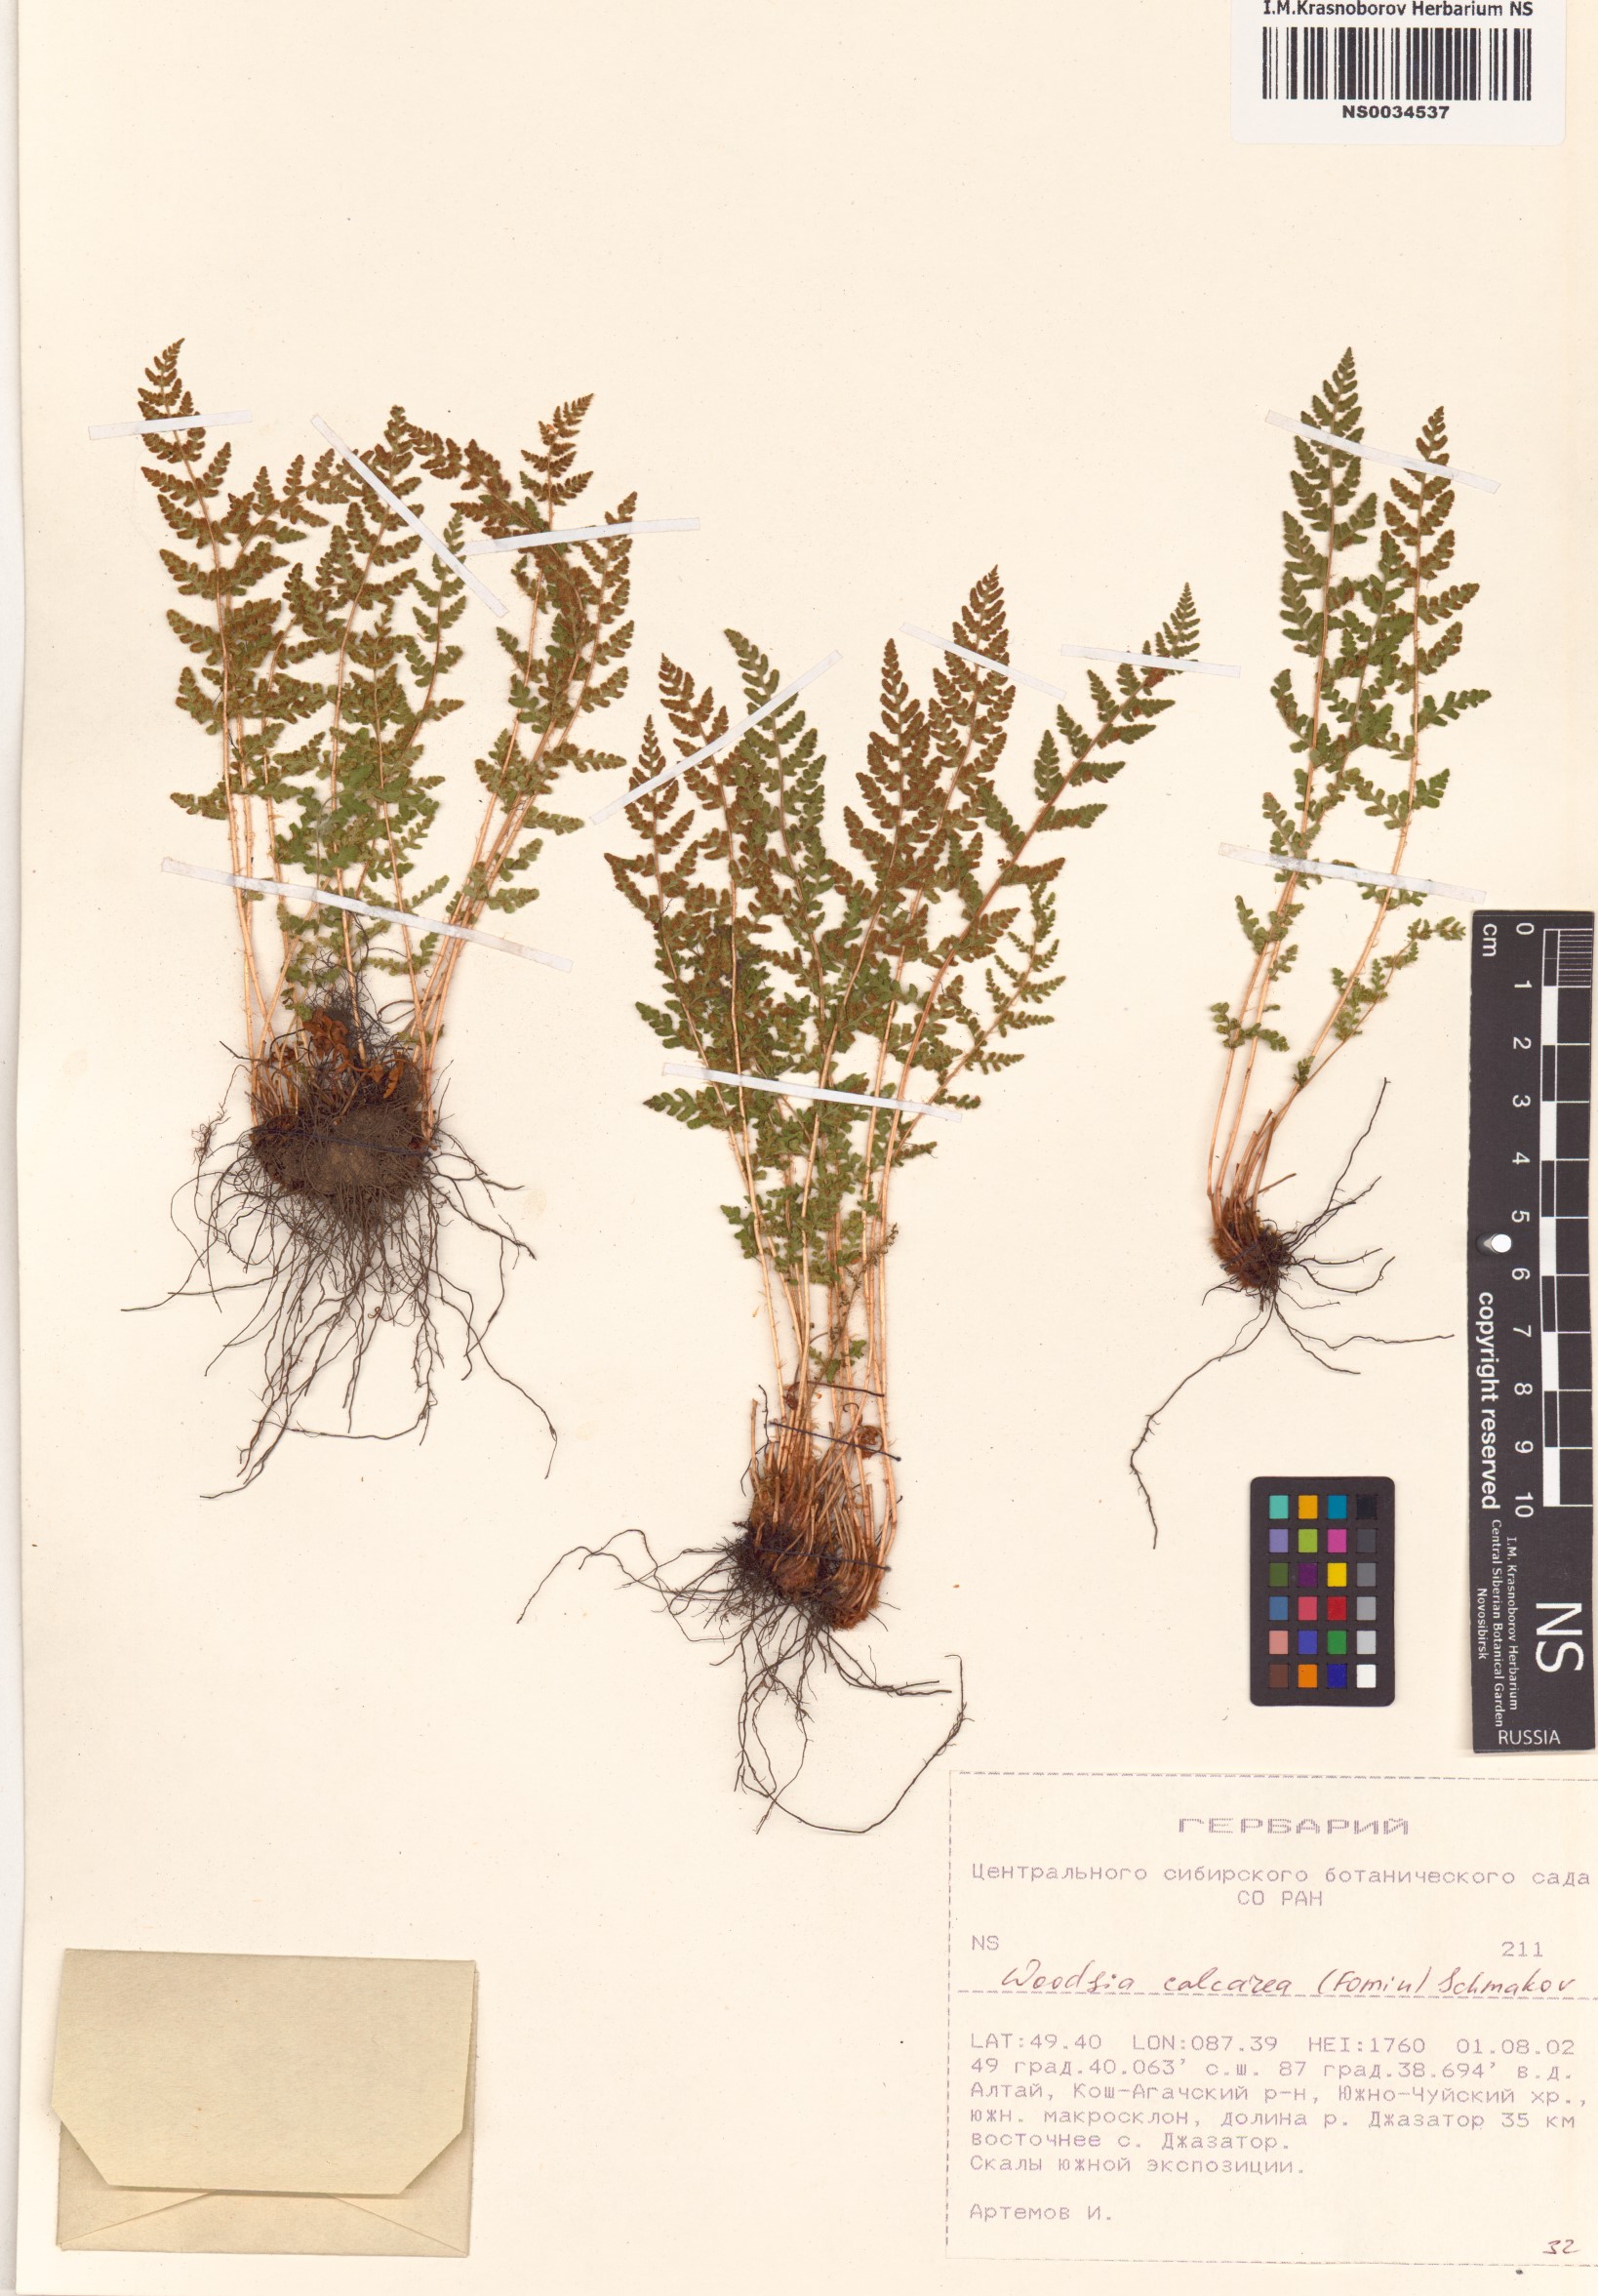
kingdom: Plantae
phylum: Tracheophyta
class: Polypodiopsida
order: Polypodiales
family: Woodsiaceae
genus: Woodsia
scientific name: Woodsia calcarea
